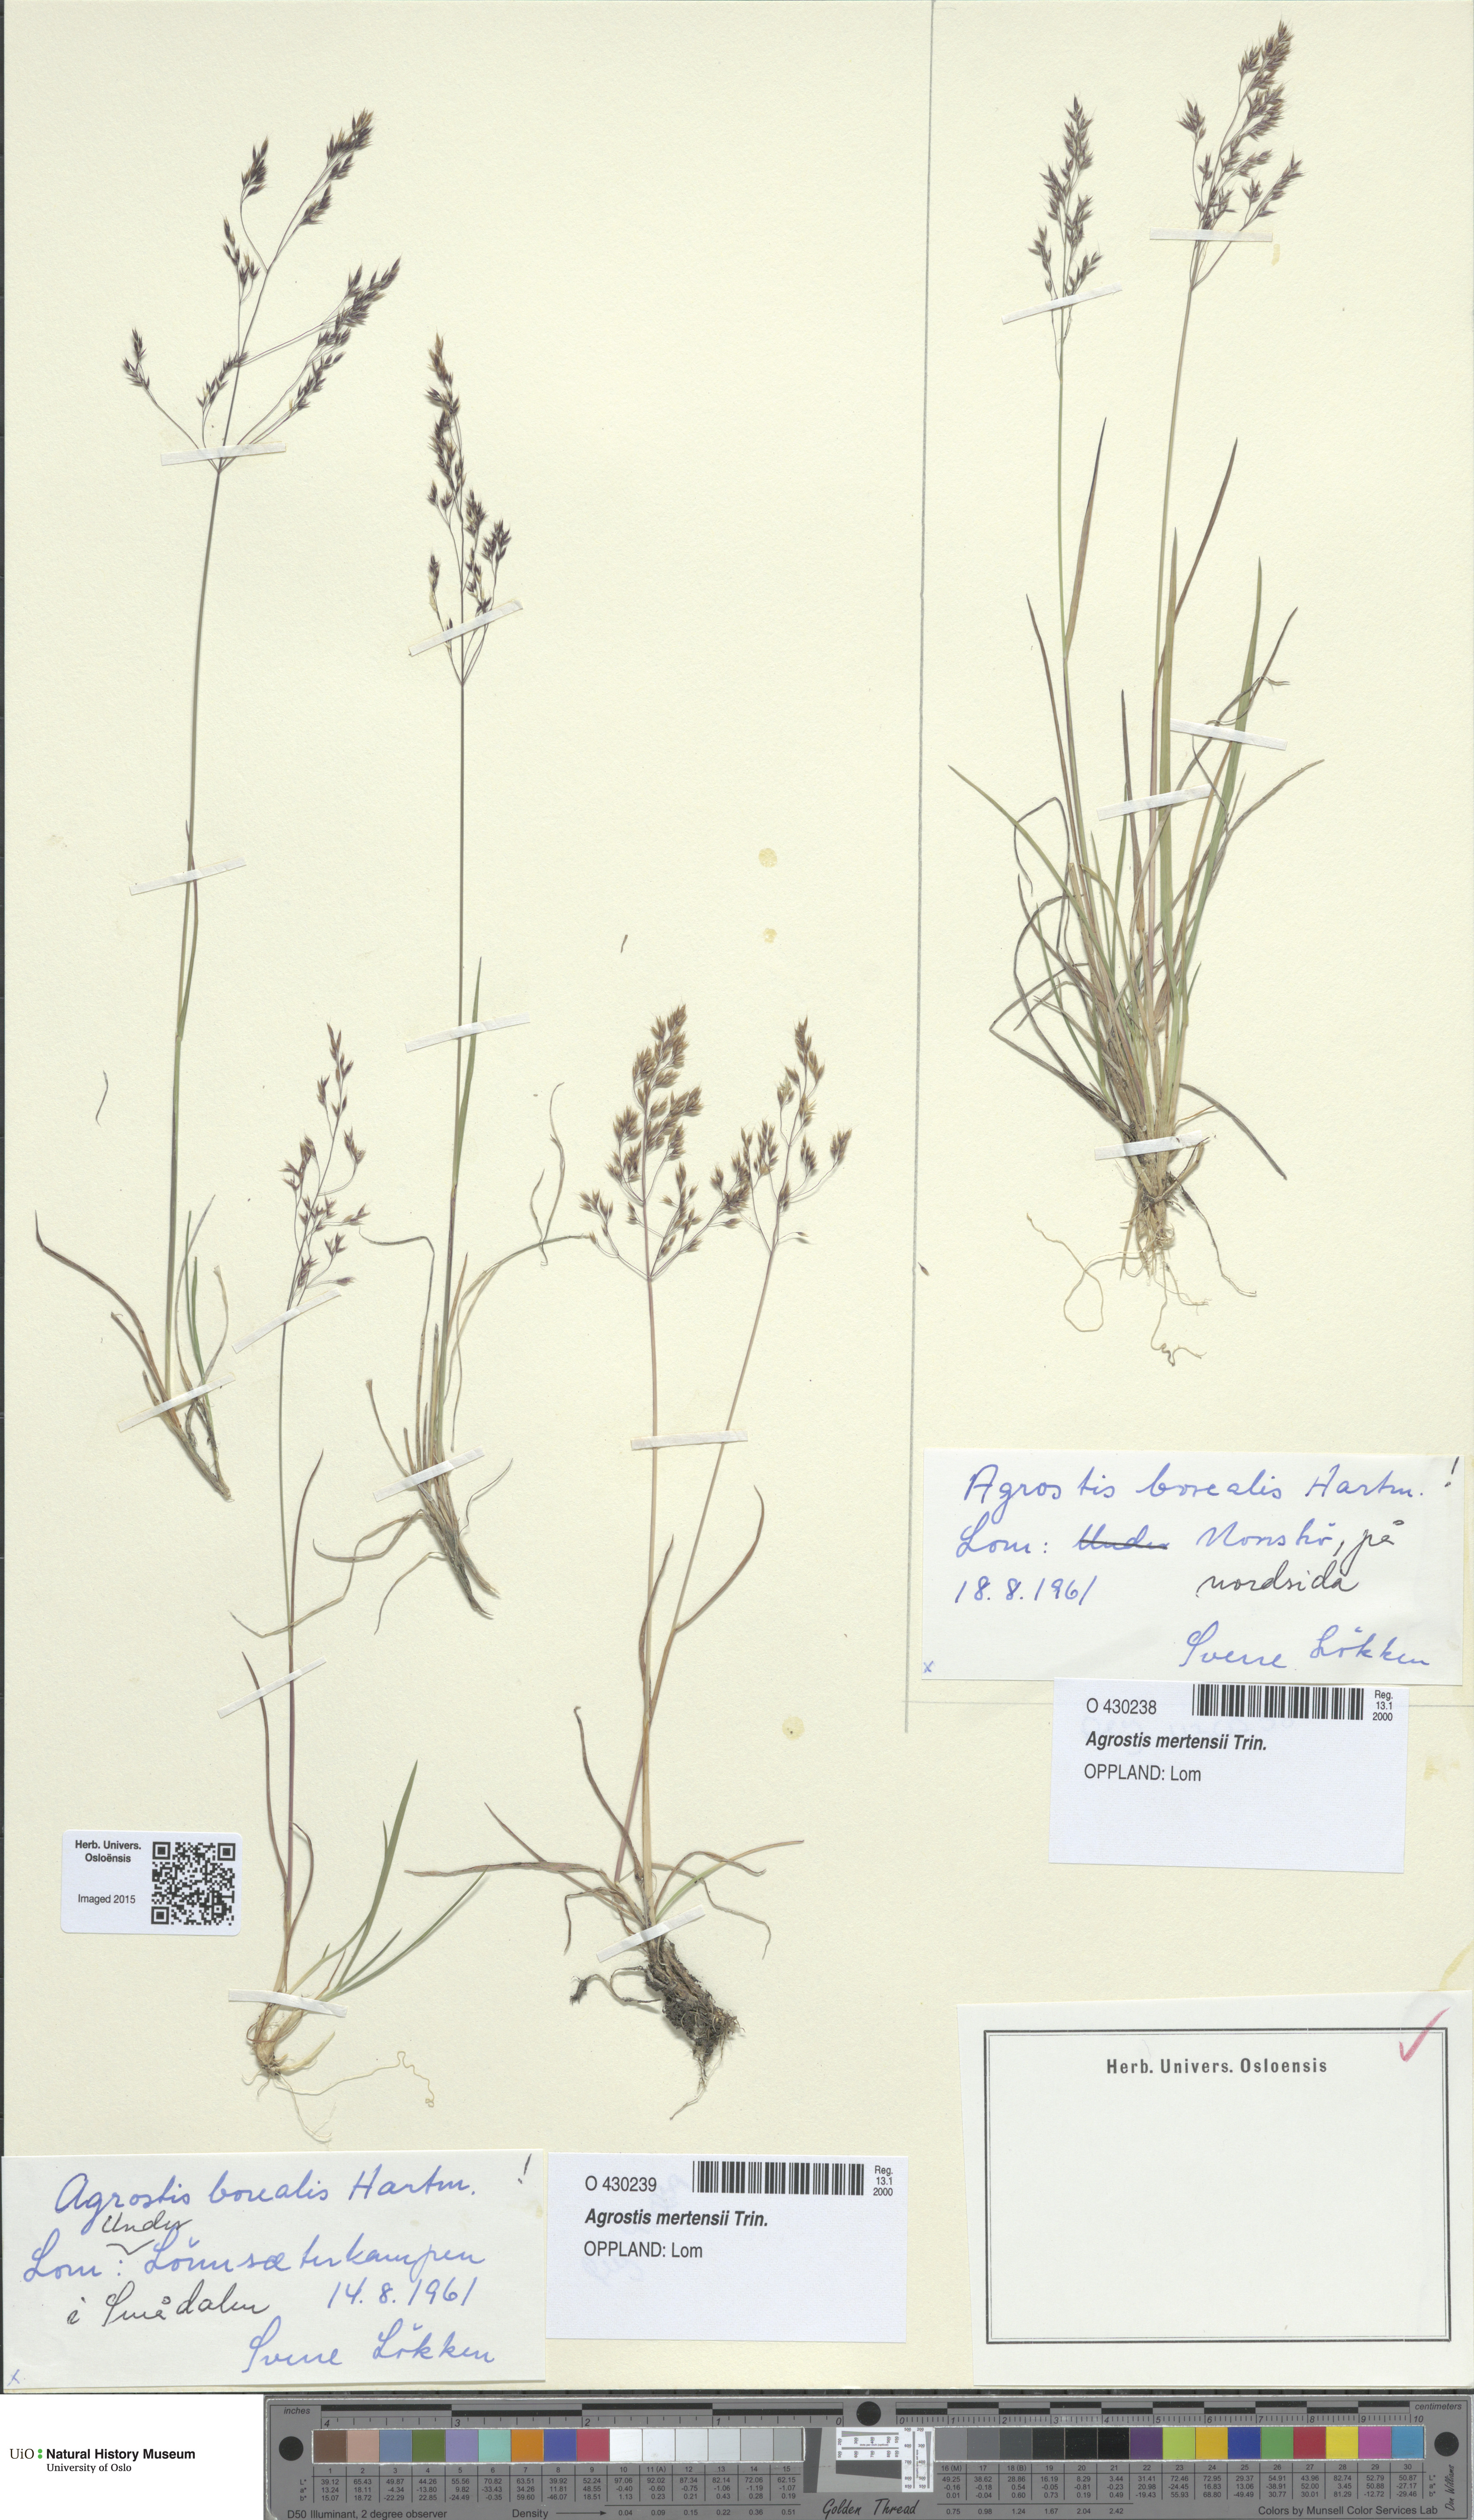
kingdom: Plantae
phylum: Tracheophyta
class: Liliopsida
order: Poales
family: Poaceae
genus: Agrostis
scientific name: Agrostis mertensii
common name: Northern bent
